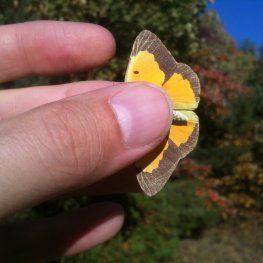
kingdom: Animalia
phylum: Arthropoda
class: Insecta
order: Lepidoptera
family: Pieridae
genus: Colias
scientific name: Colias eurytheme
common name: Orange Sulphur
